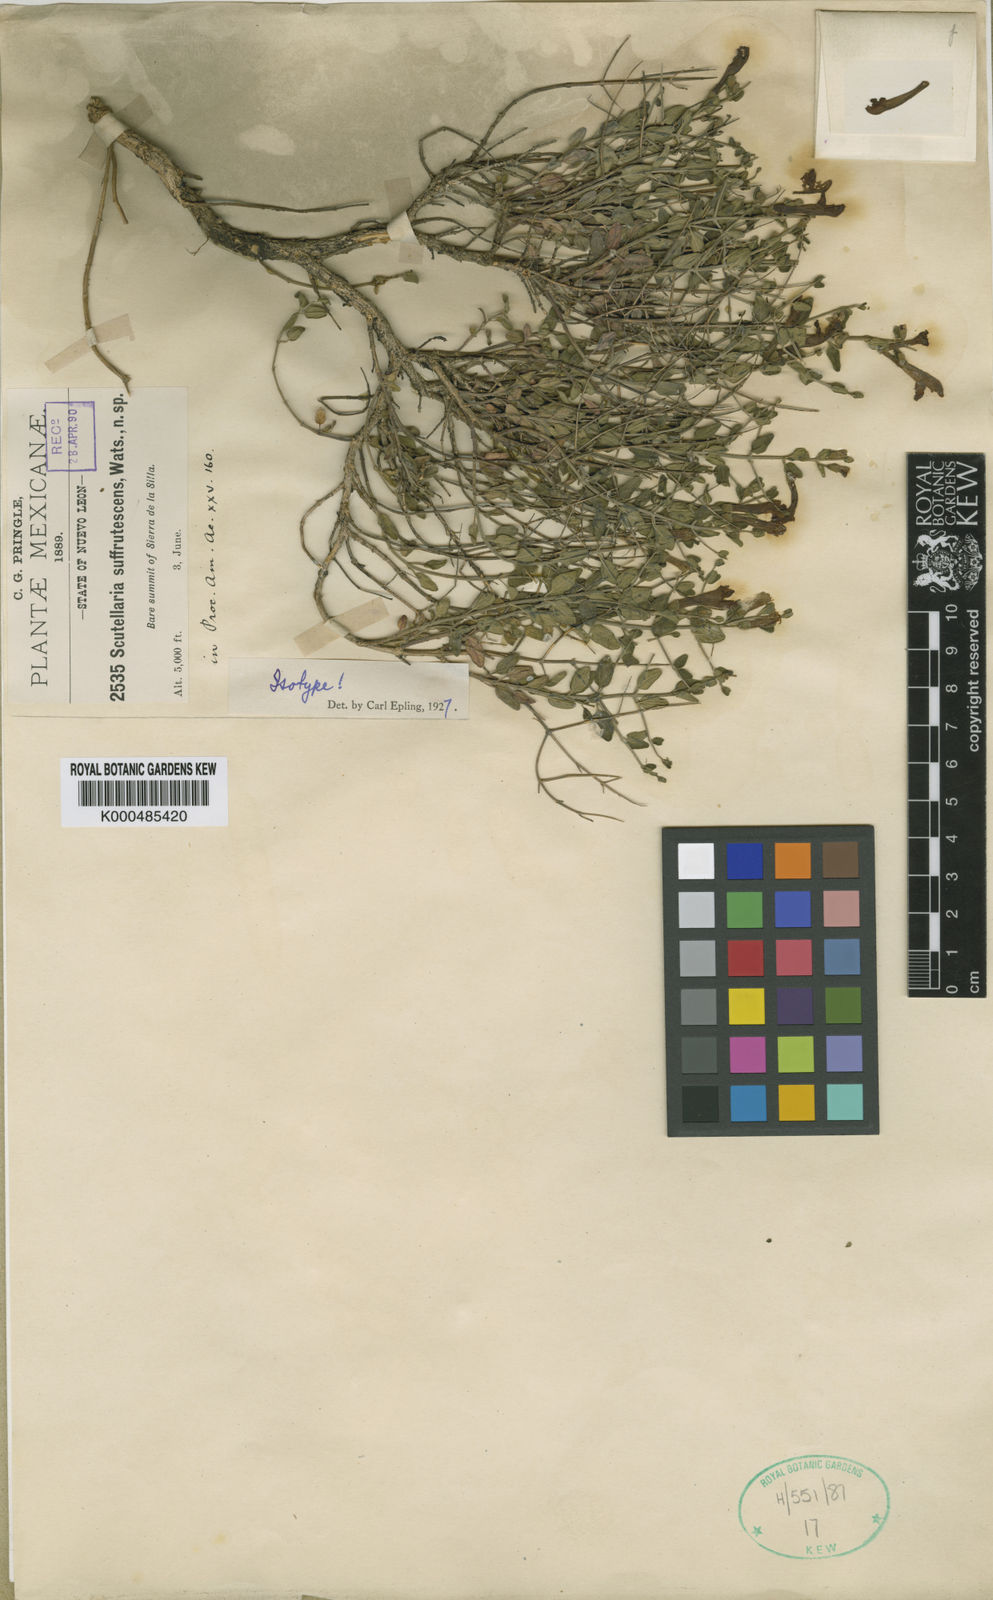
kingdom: Plantae
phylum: Tracheophyta
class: Magnoliopsida
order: Lamiales
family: Lamiaceae
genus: Scutellaria
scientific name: Scutellaria suffrutescens
